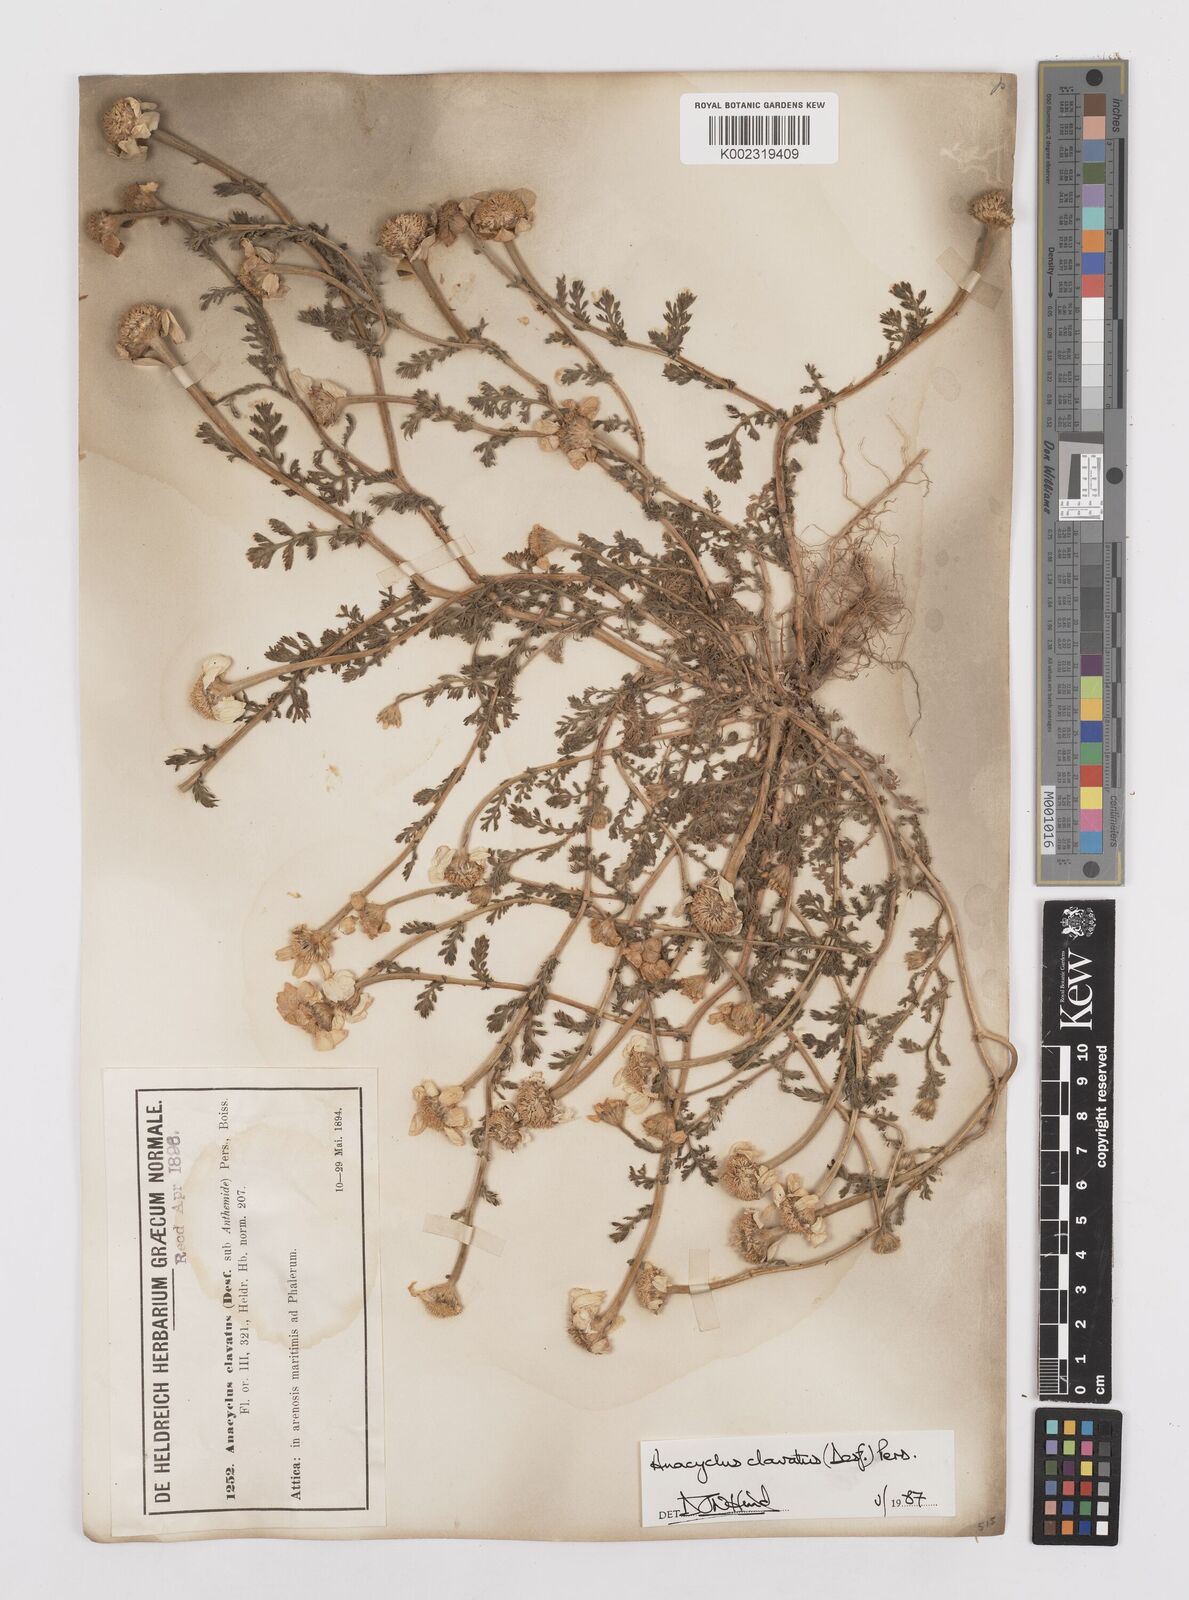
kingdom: Plantae
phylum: Tracheophyta
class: Magnoliopsida
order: Asterales
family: Asteraceae
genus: Anacyclus
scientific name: Anacyclus clavatus
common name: Whitebuttons
